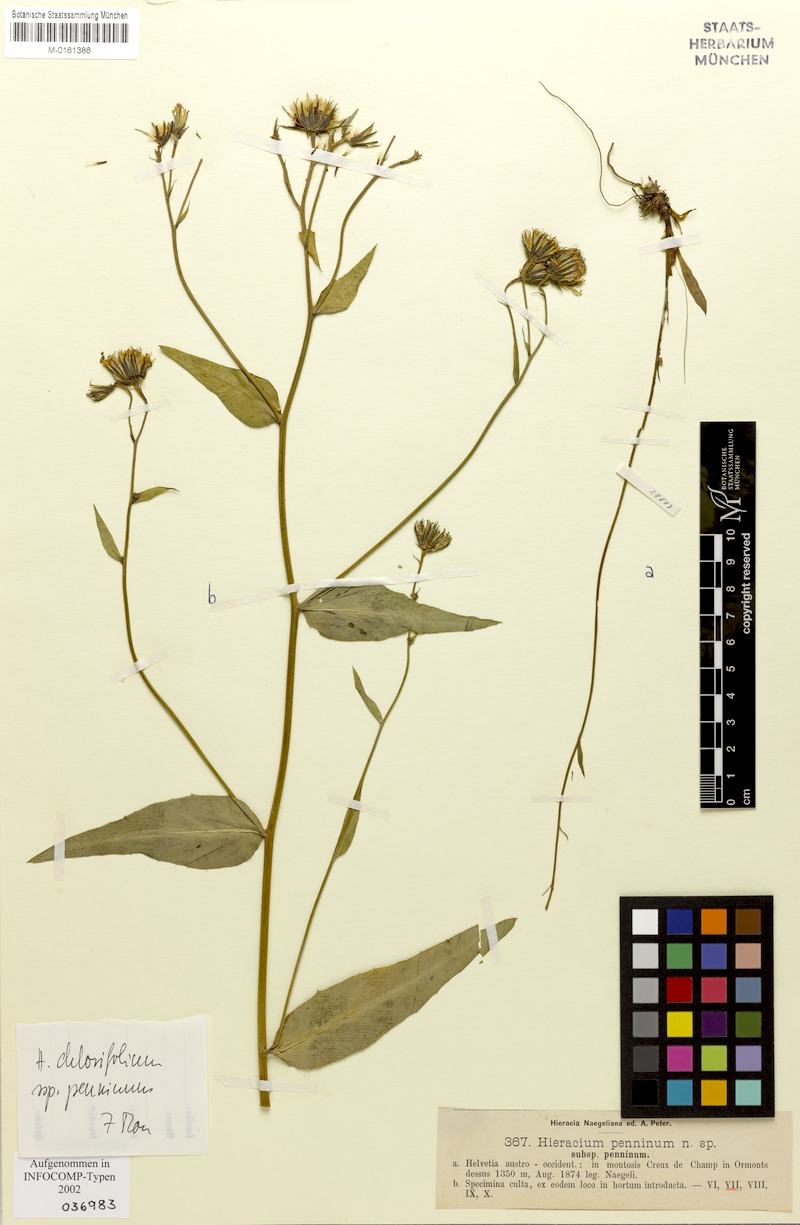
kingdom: Plantae
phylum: Tracheophyta
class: Magnoliopsida
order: Asterales
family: Asteraceae
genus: Hieracium
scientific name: Hieracium chlorifolium
